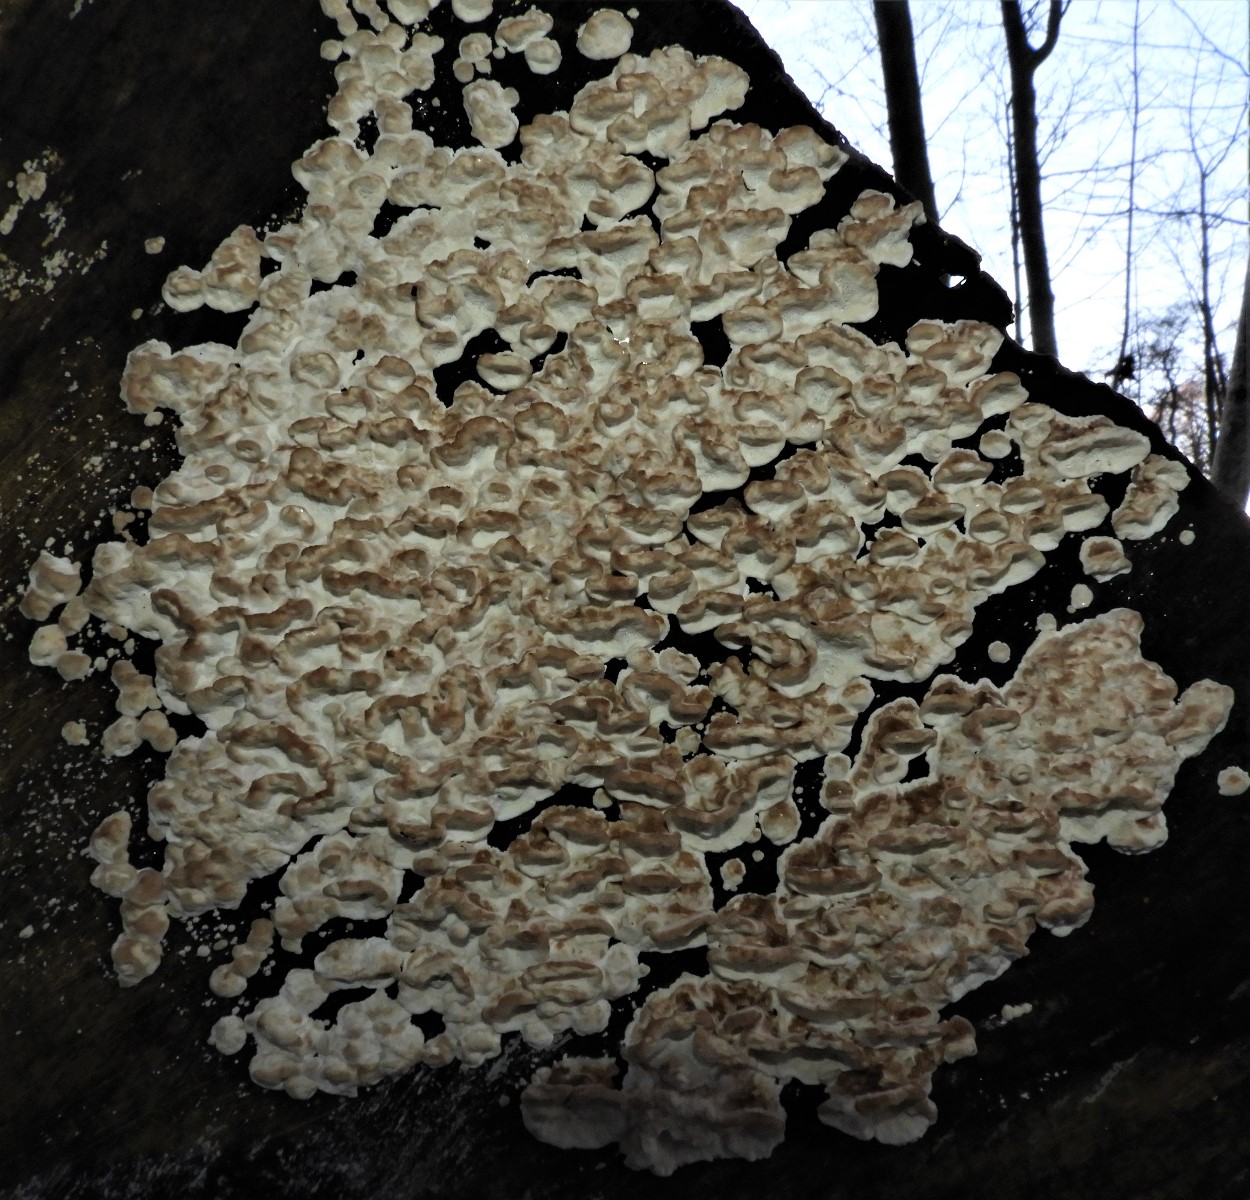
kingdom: Fungi
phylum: Basidiomycota
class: Agaricomycetes
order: Polyporales
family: Polyporaceae
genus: Trametes
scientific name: Trametes versicolor
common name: broget læderporesvamp
